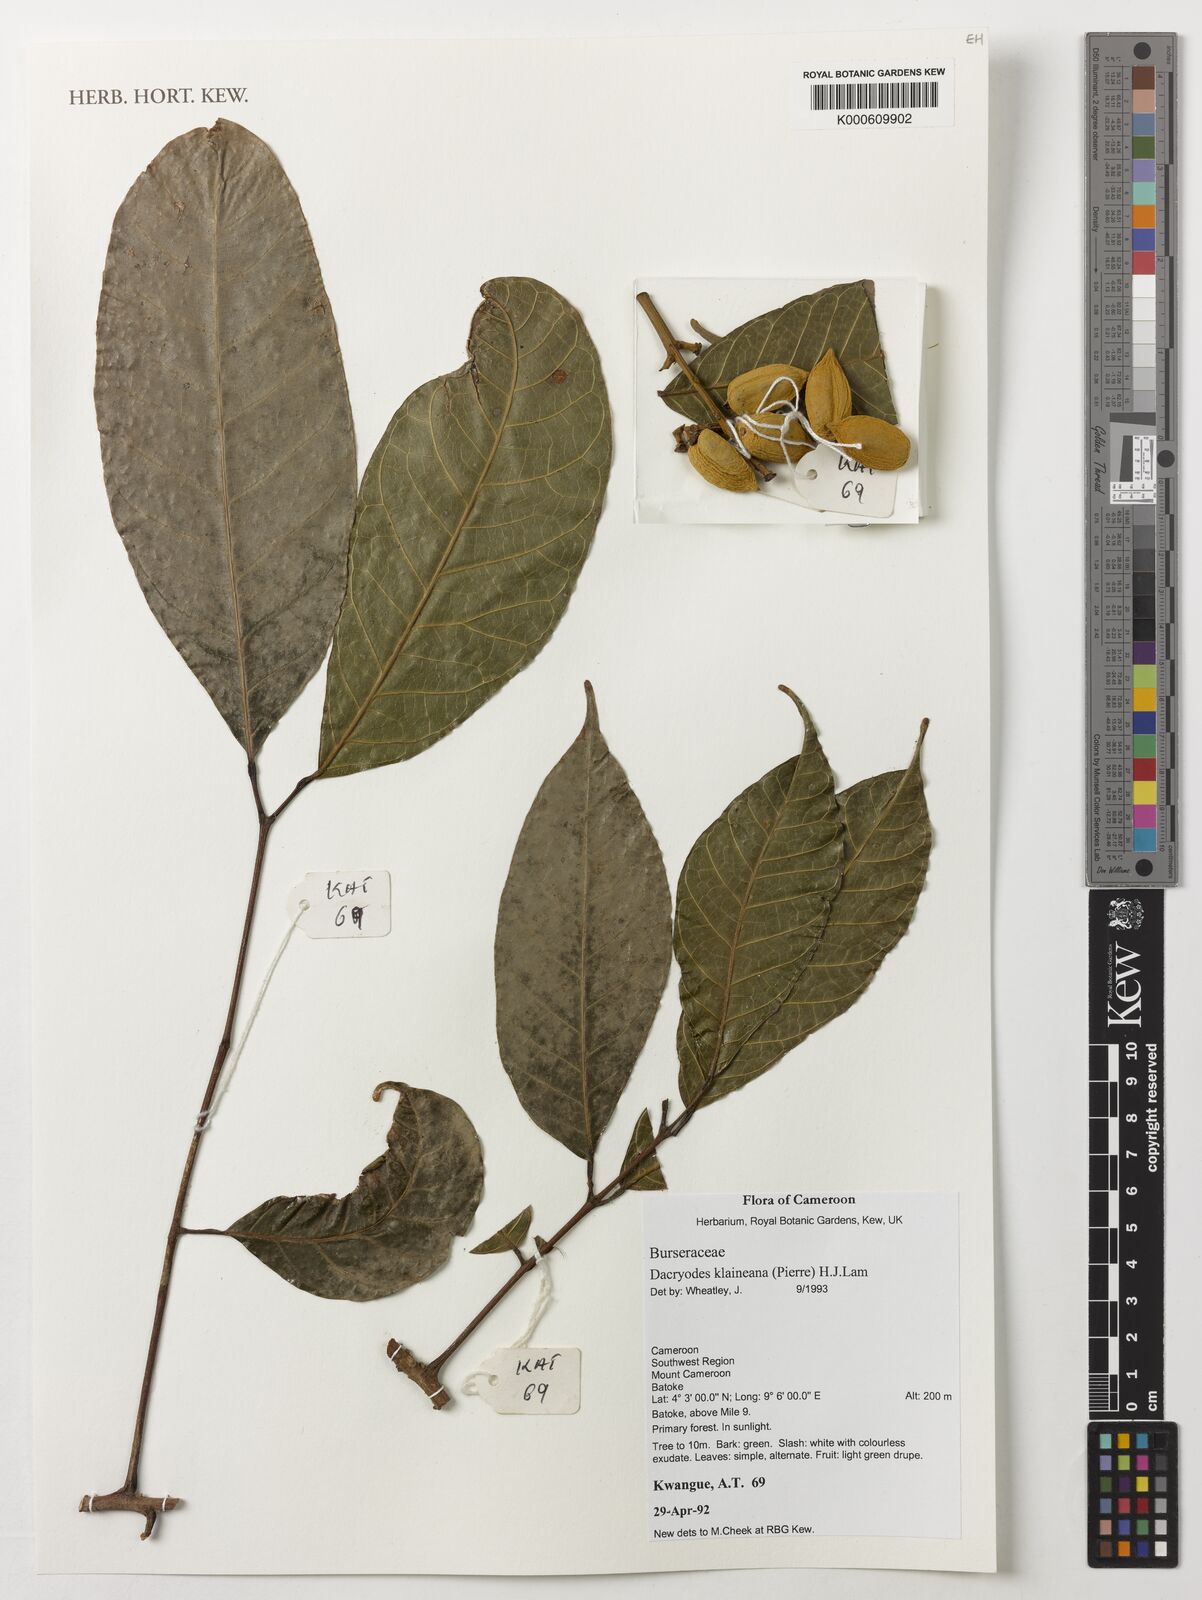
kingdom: Plantae
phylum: Tracheophyta
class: Magnoliopsida
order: Sapindales
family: Burseraceae
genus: Pachylobus
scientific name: Pachylobus klaineana
